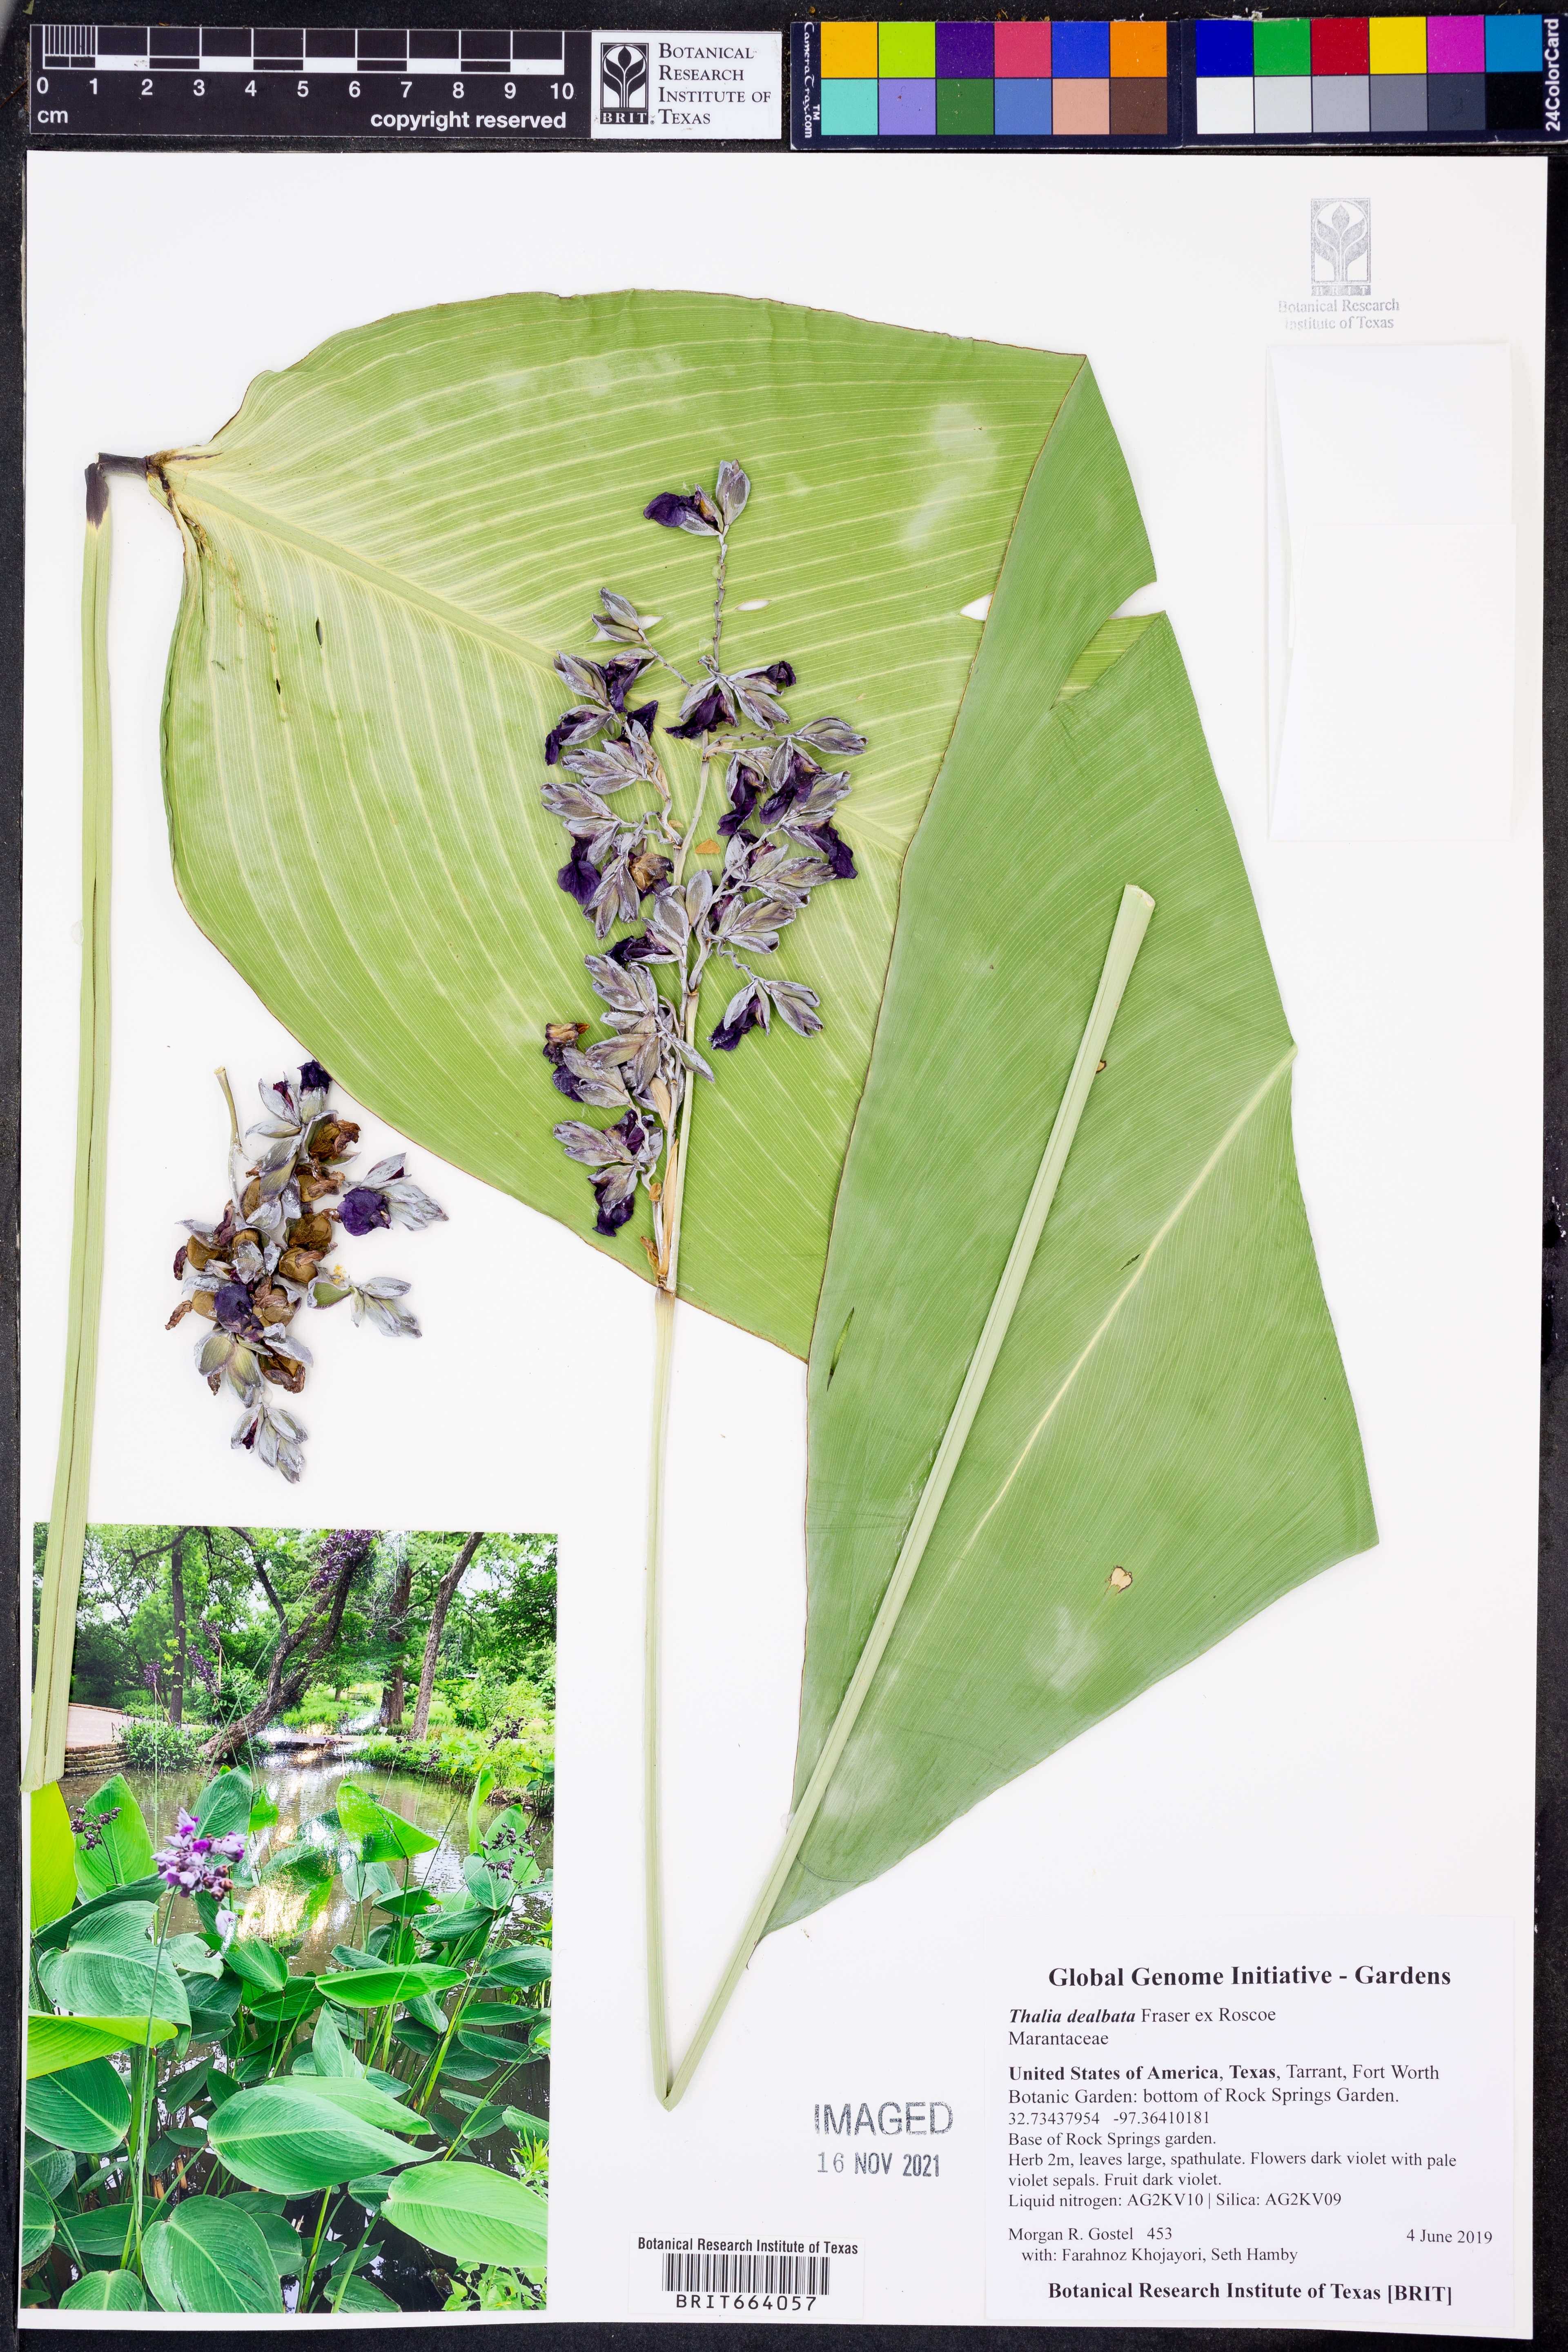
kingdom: Plantae
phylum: Tracheophyta
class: Liliopsida
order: Zingiberales
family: Marantaceae
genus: Thalia
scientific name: Thalia dealbata
